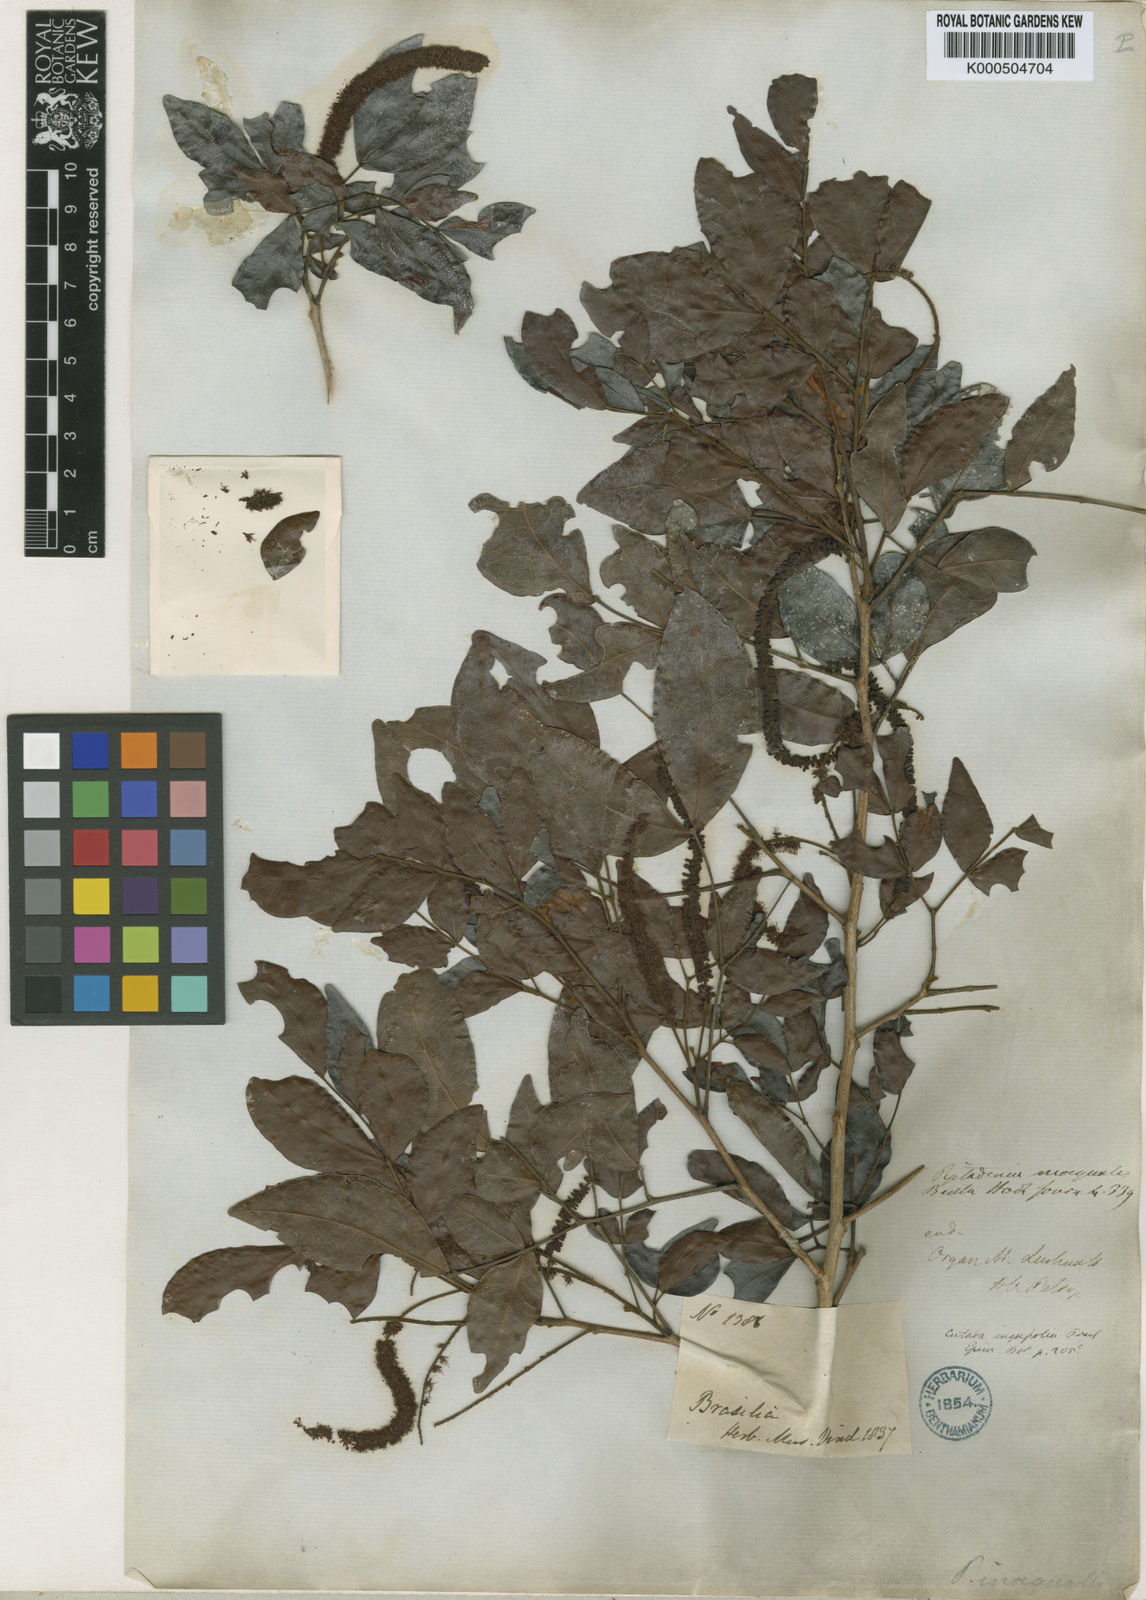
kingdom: Plantae
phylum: Tracheophyta
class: Magnoliopsida
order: Fabales
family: Fabaceae
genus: Pseudopiptadenia
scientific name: Pseudopiptadenia inaequalis
